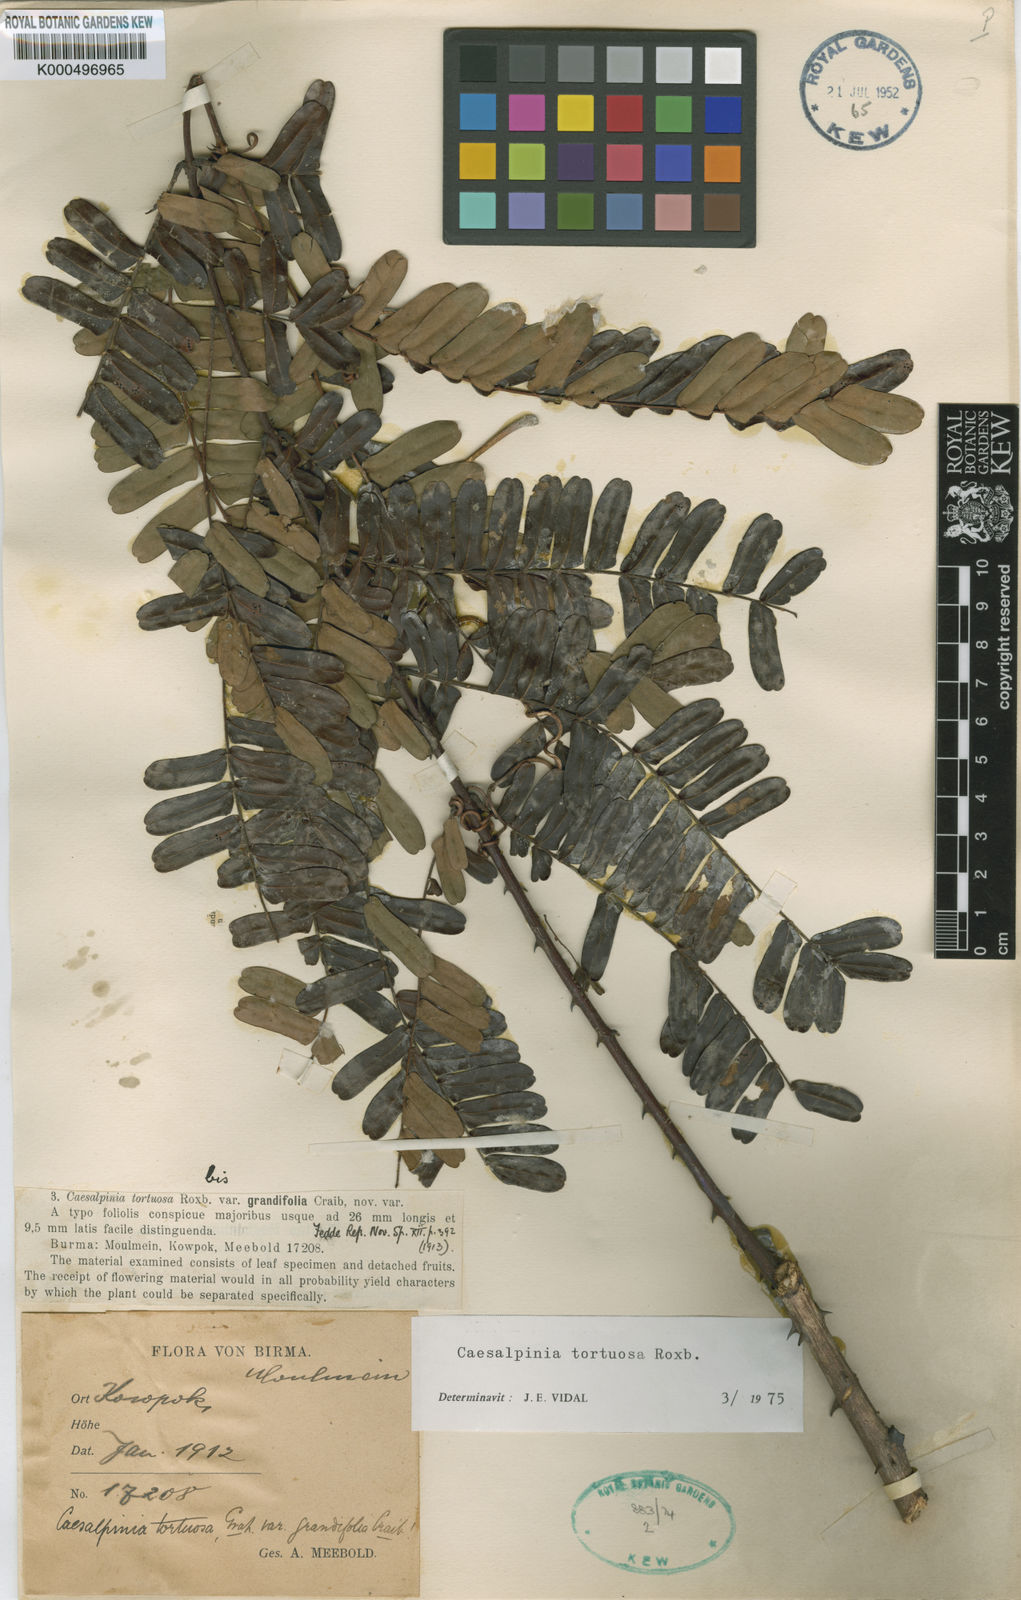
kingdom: Plantae
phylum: Tracheophyta
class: Magnoliopsida
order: Fabales
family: Fabaceae
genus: Moullava
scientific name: Moullava tortuosa
